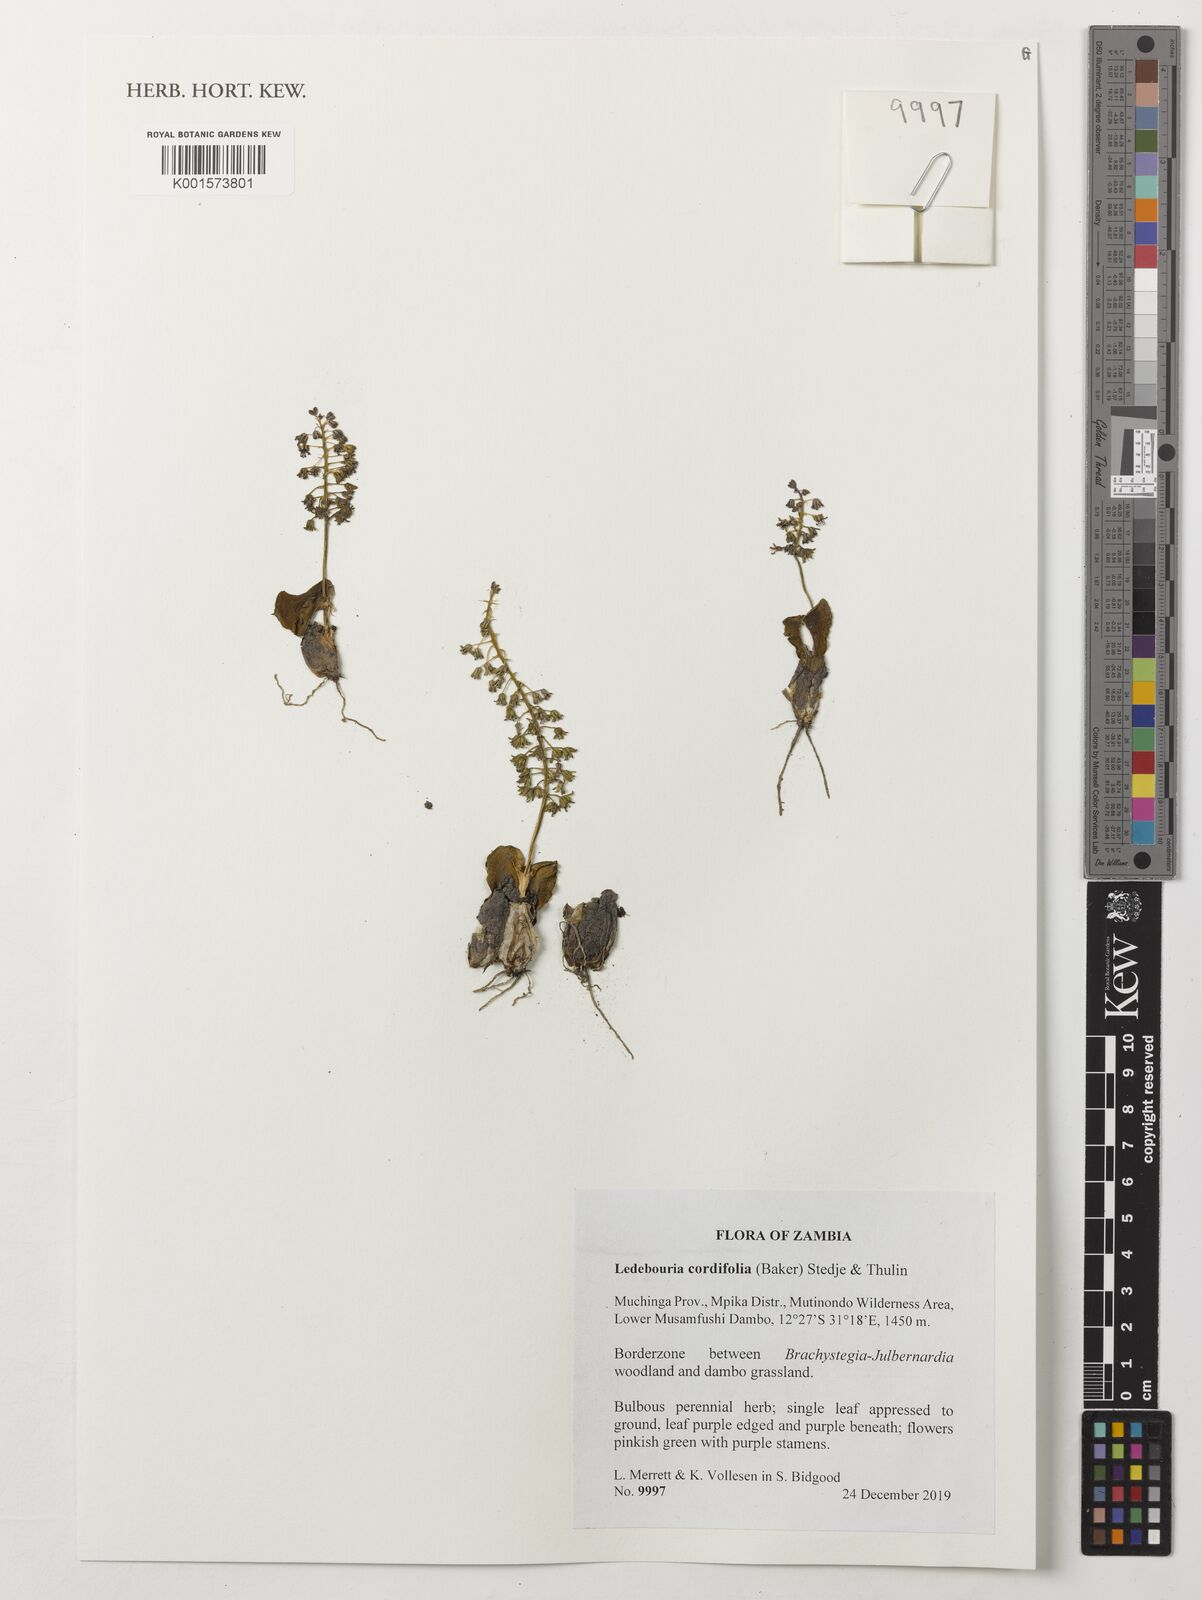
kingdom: Plantae
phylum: Tracheophyta
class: Liliopsida
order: Asparagales
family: Asparagaceae
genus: Ledebouria
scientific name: Ledebouria cordifolia
